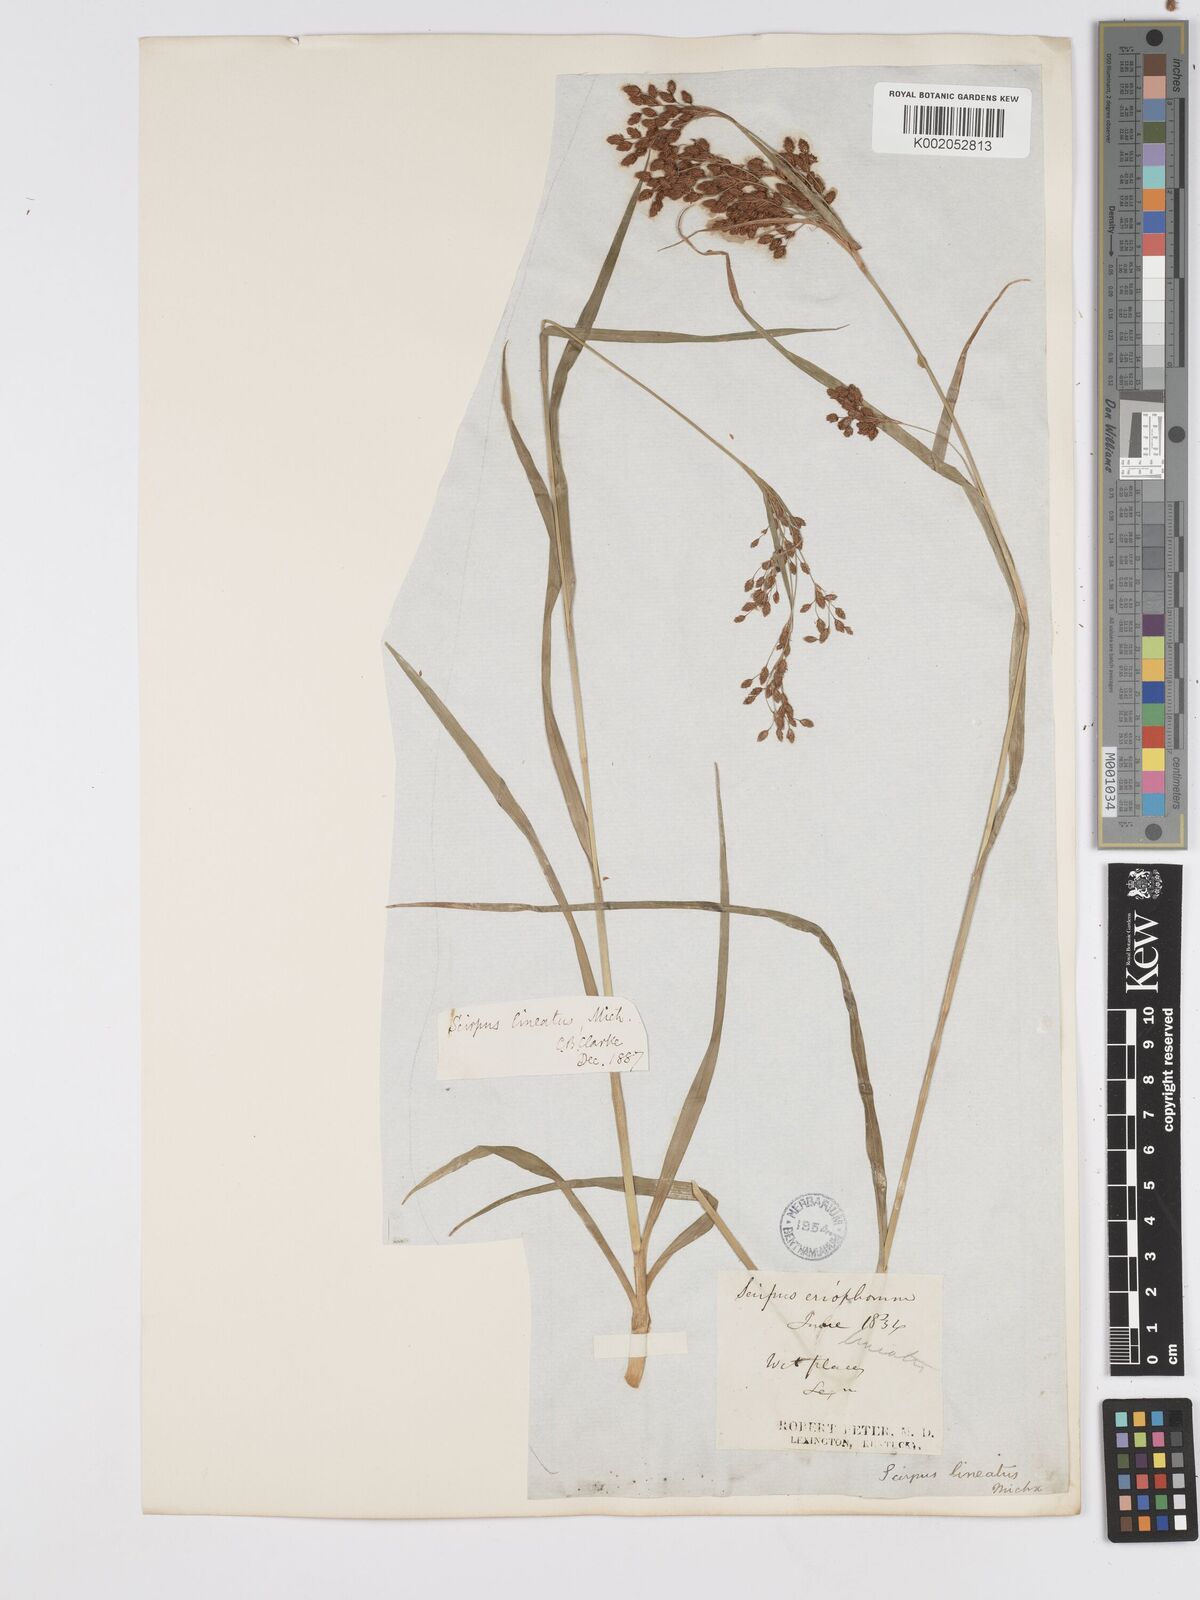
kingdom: Plantae
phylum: Tracheophyta
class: Liliopsida
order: Poales
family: Cyperaceae
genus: Scirpus
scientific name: Scirpus lineatus
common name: Drooping bulrush
